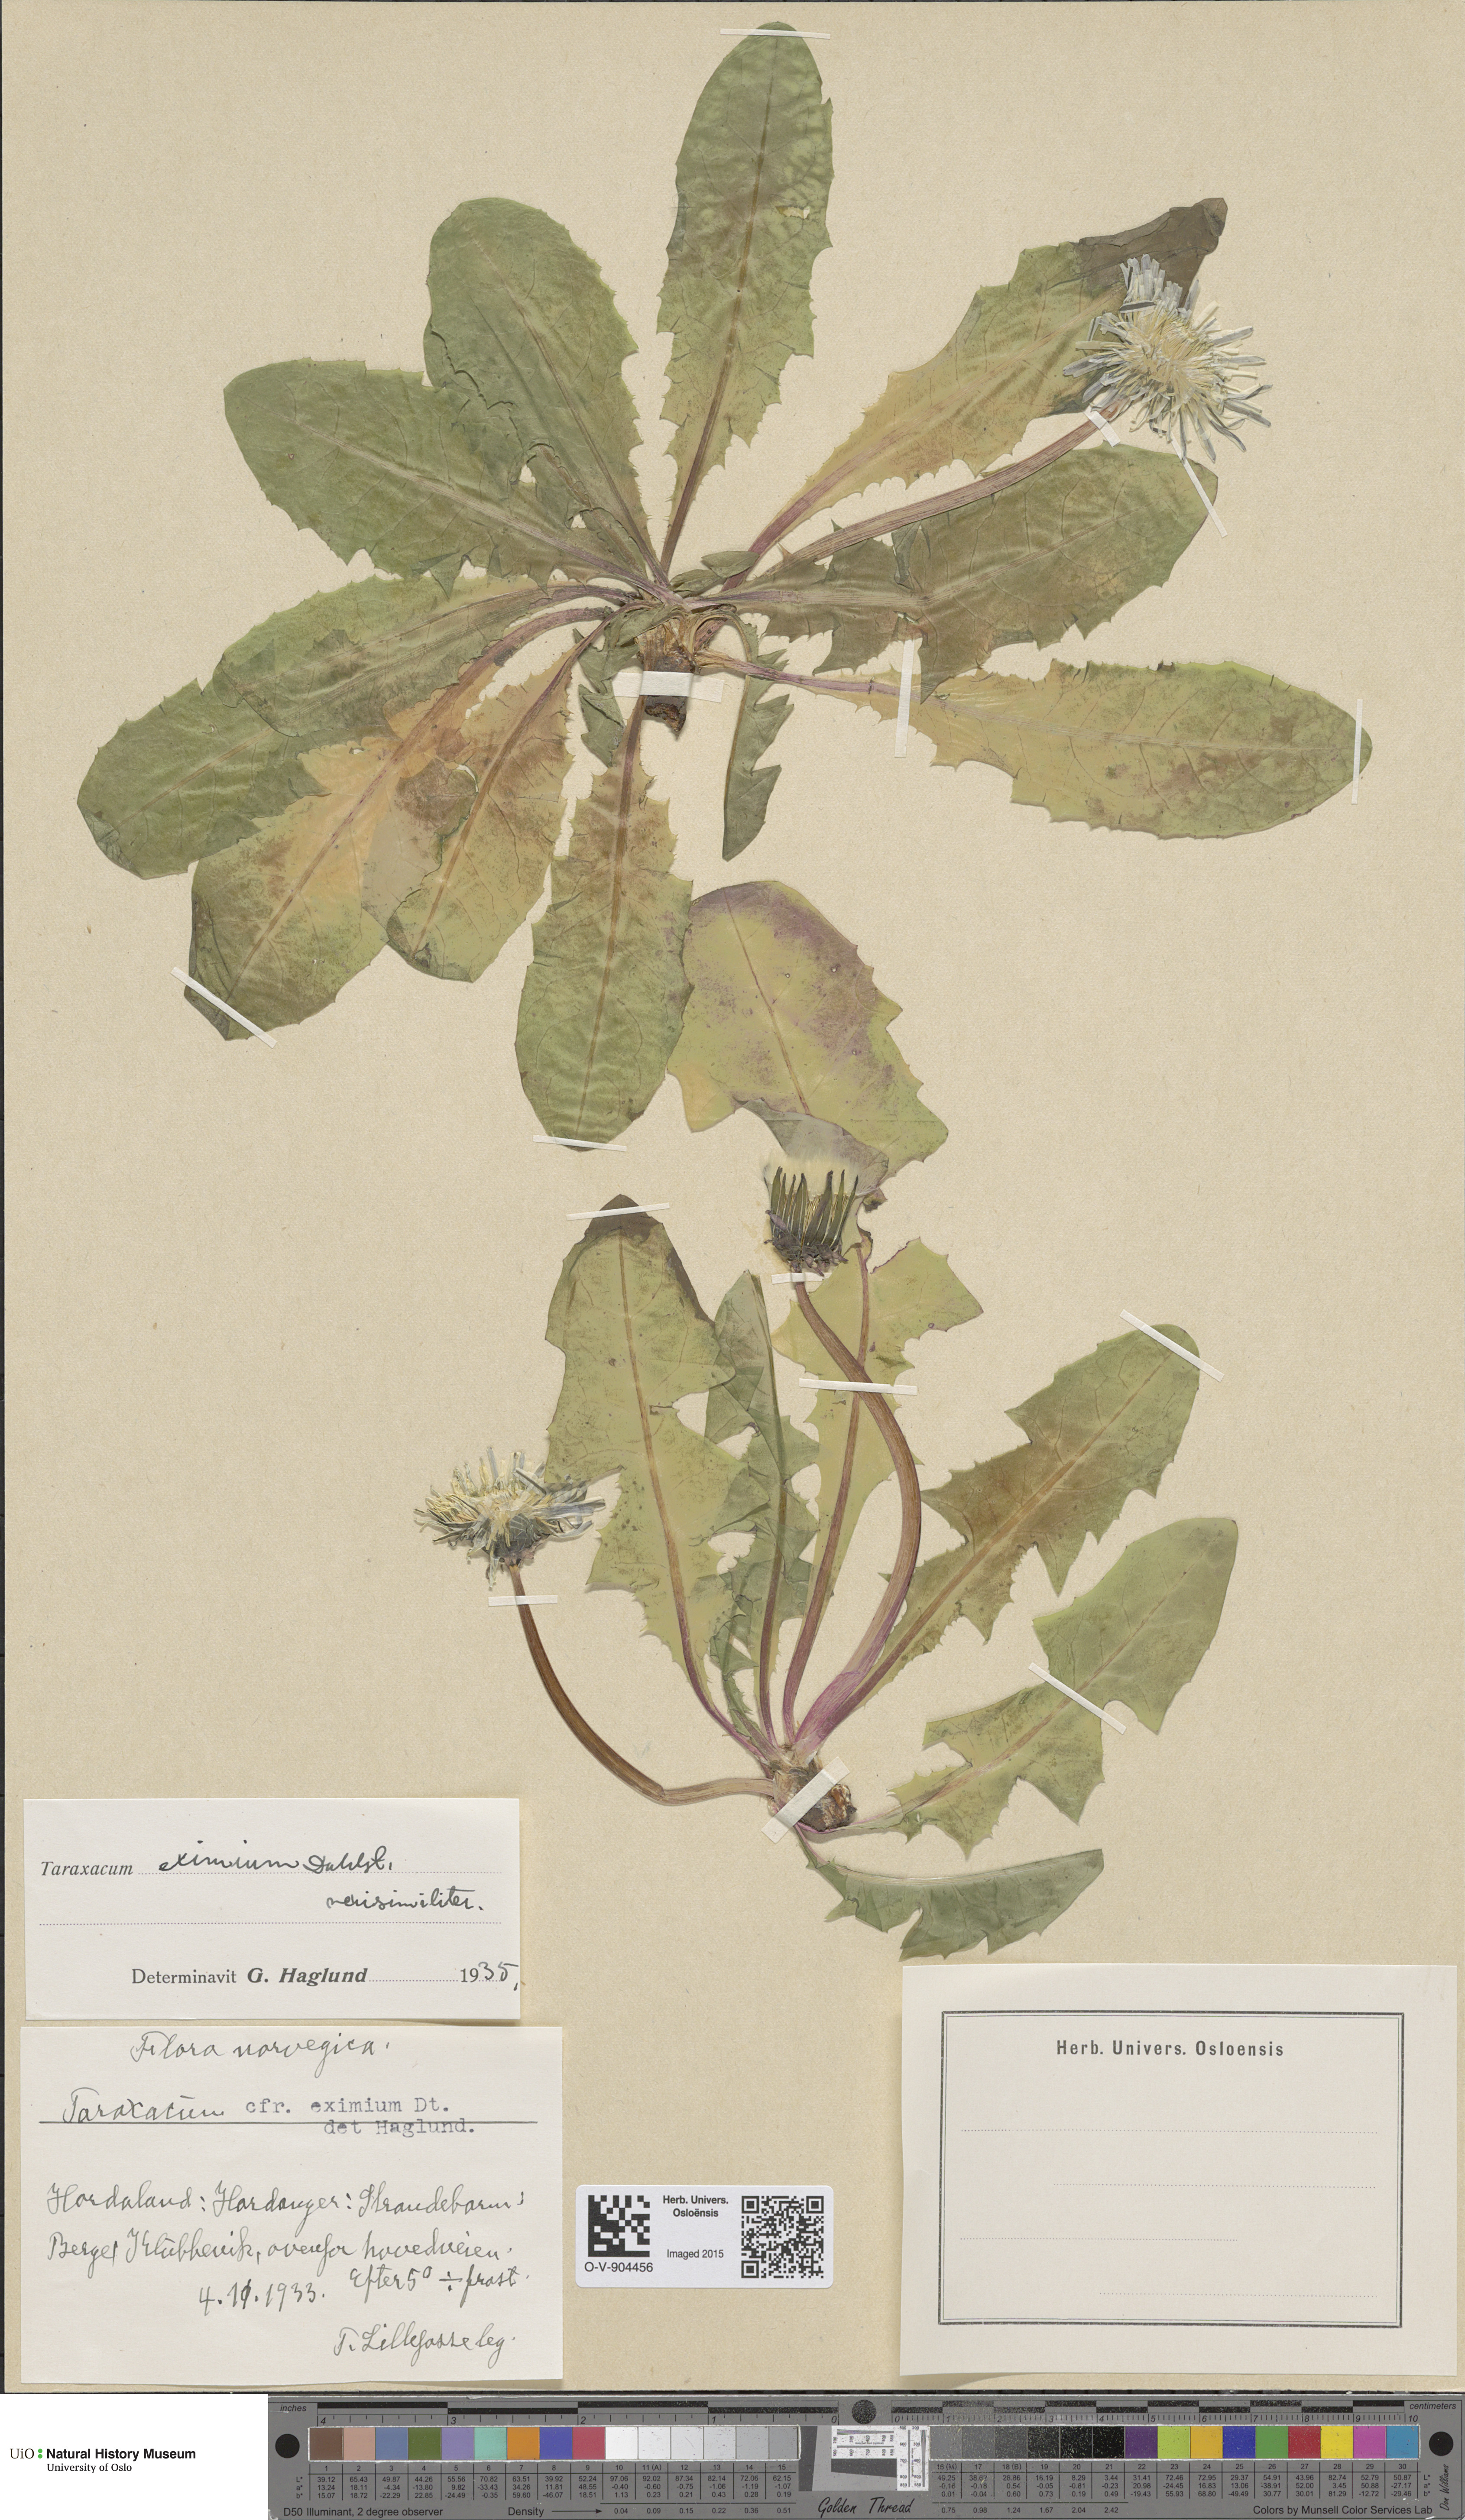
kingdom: Plantae
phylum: Tracheophyta
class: Magnoliopsida
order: Asterales
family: Asteraceae
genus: Taraxacum
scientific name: Taraxacum eximium
